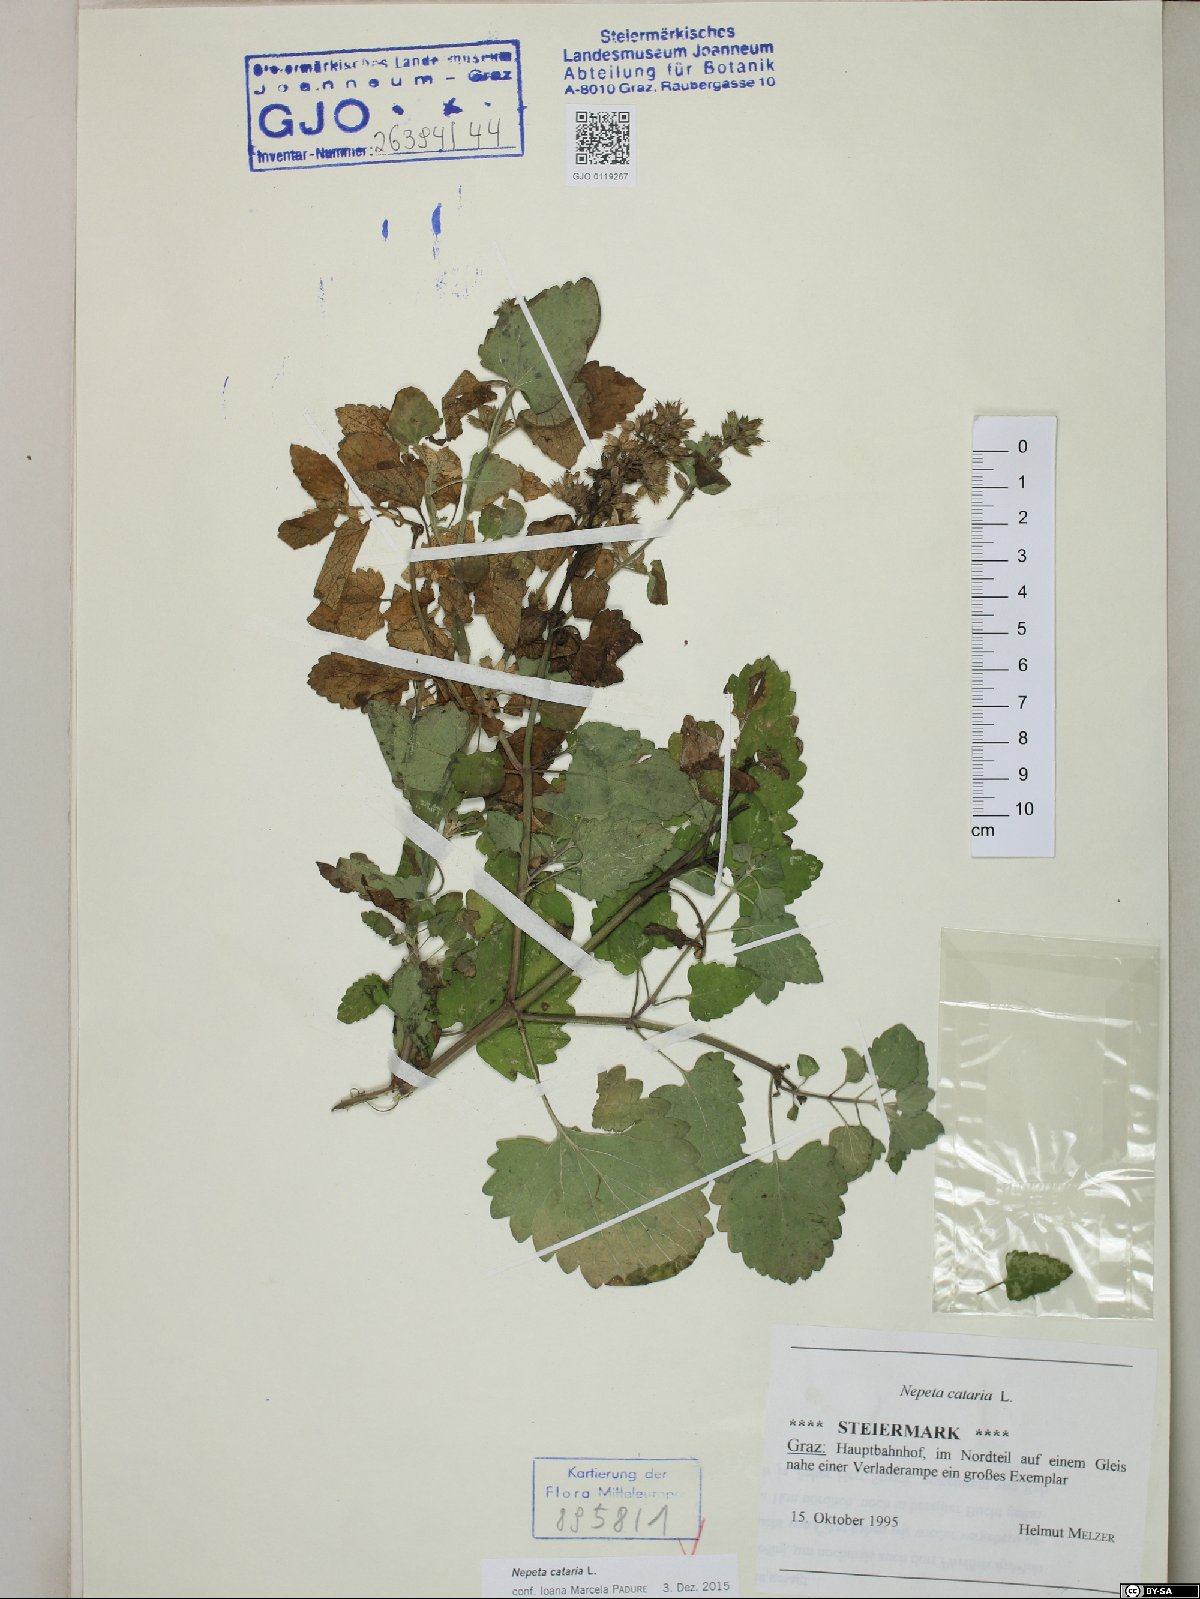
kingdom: Plantae
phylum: Tracheophyta
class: Magnoliopsida
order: Lamiales
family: Lamiaceae
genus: Nepeta
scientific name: Nepeta cataria
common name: Catnip
